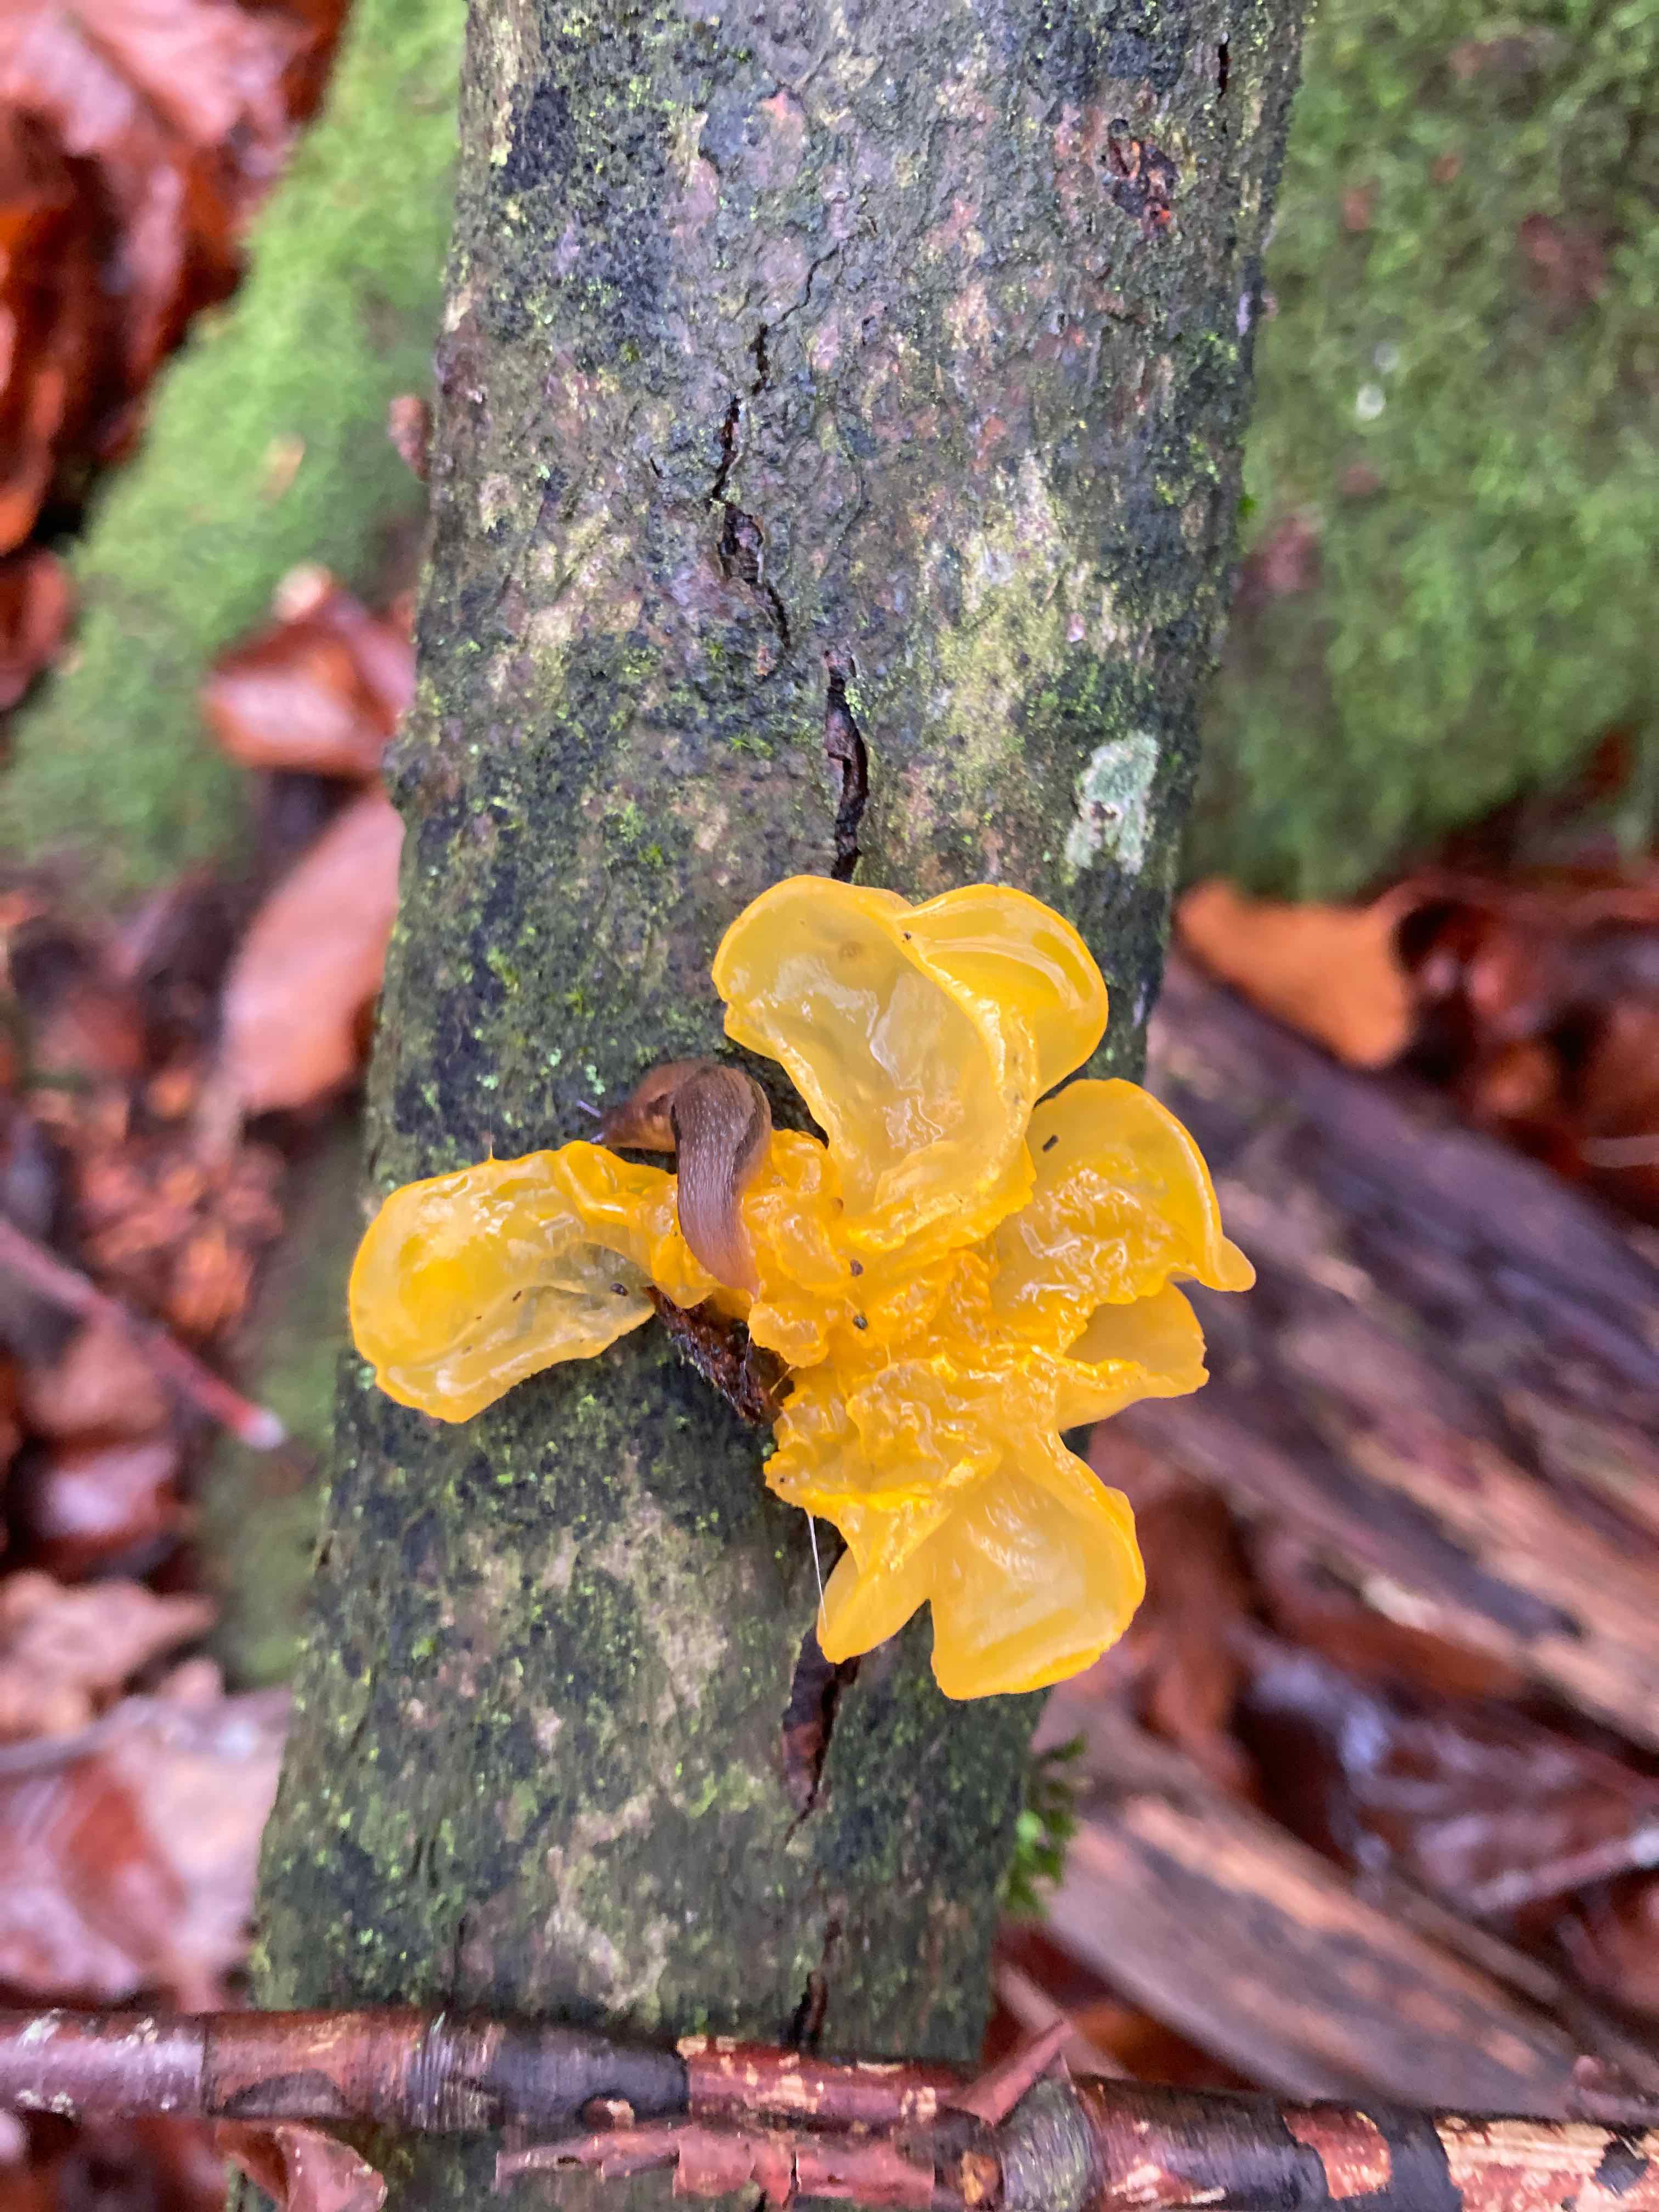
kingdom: Fungi
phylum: Basidiomycota
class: Tremellomycetes
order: Tremellales
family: Tremellaceae
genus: Tremella
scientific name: Tremella mesenterica
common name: gul bævresvamp
